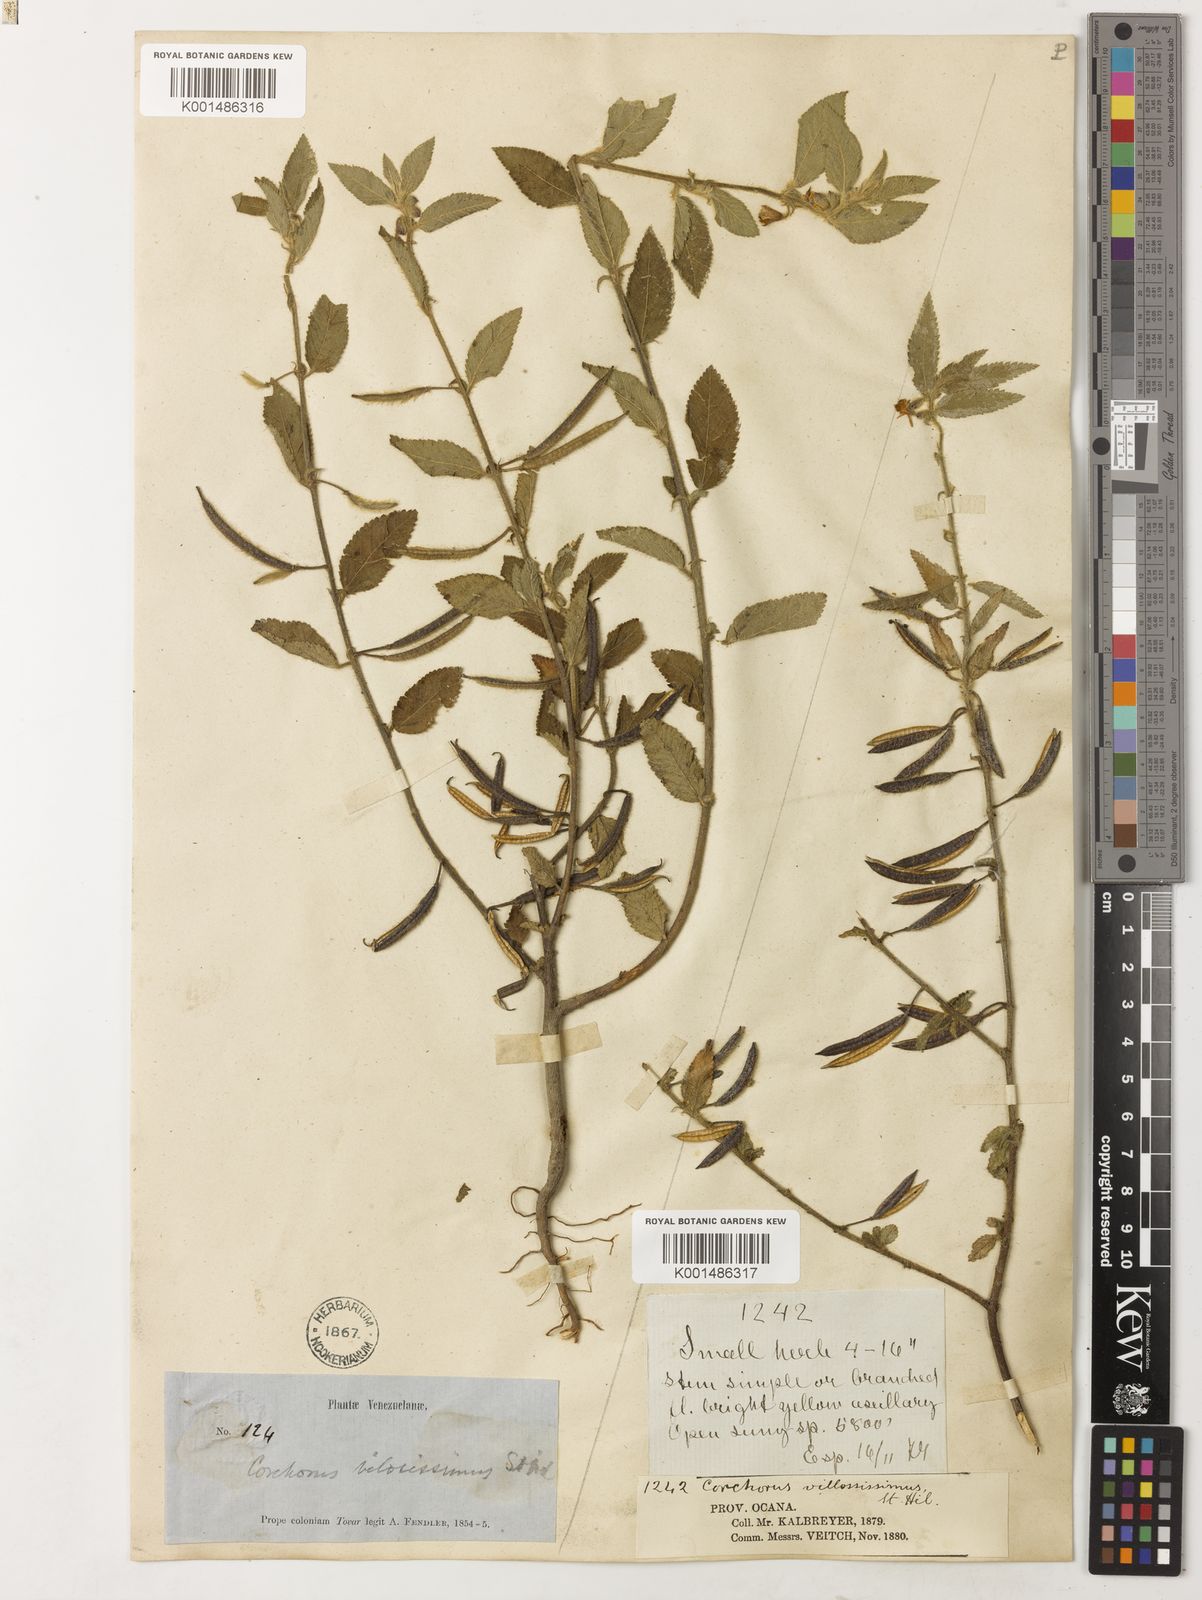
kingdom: Plantae
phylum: Tracheophyta
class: Magnoliopsida
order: Malvales
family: Malvaceae
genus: Corchorus
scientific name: Corchorus hirtus
